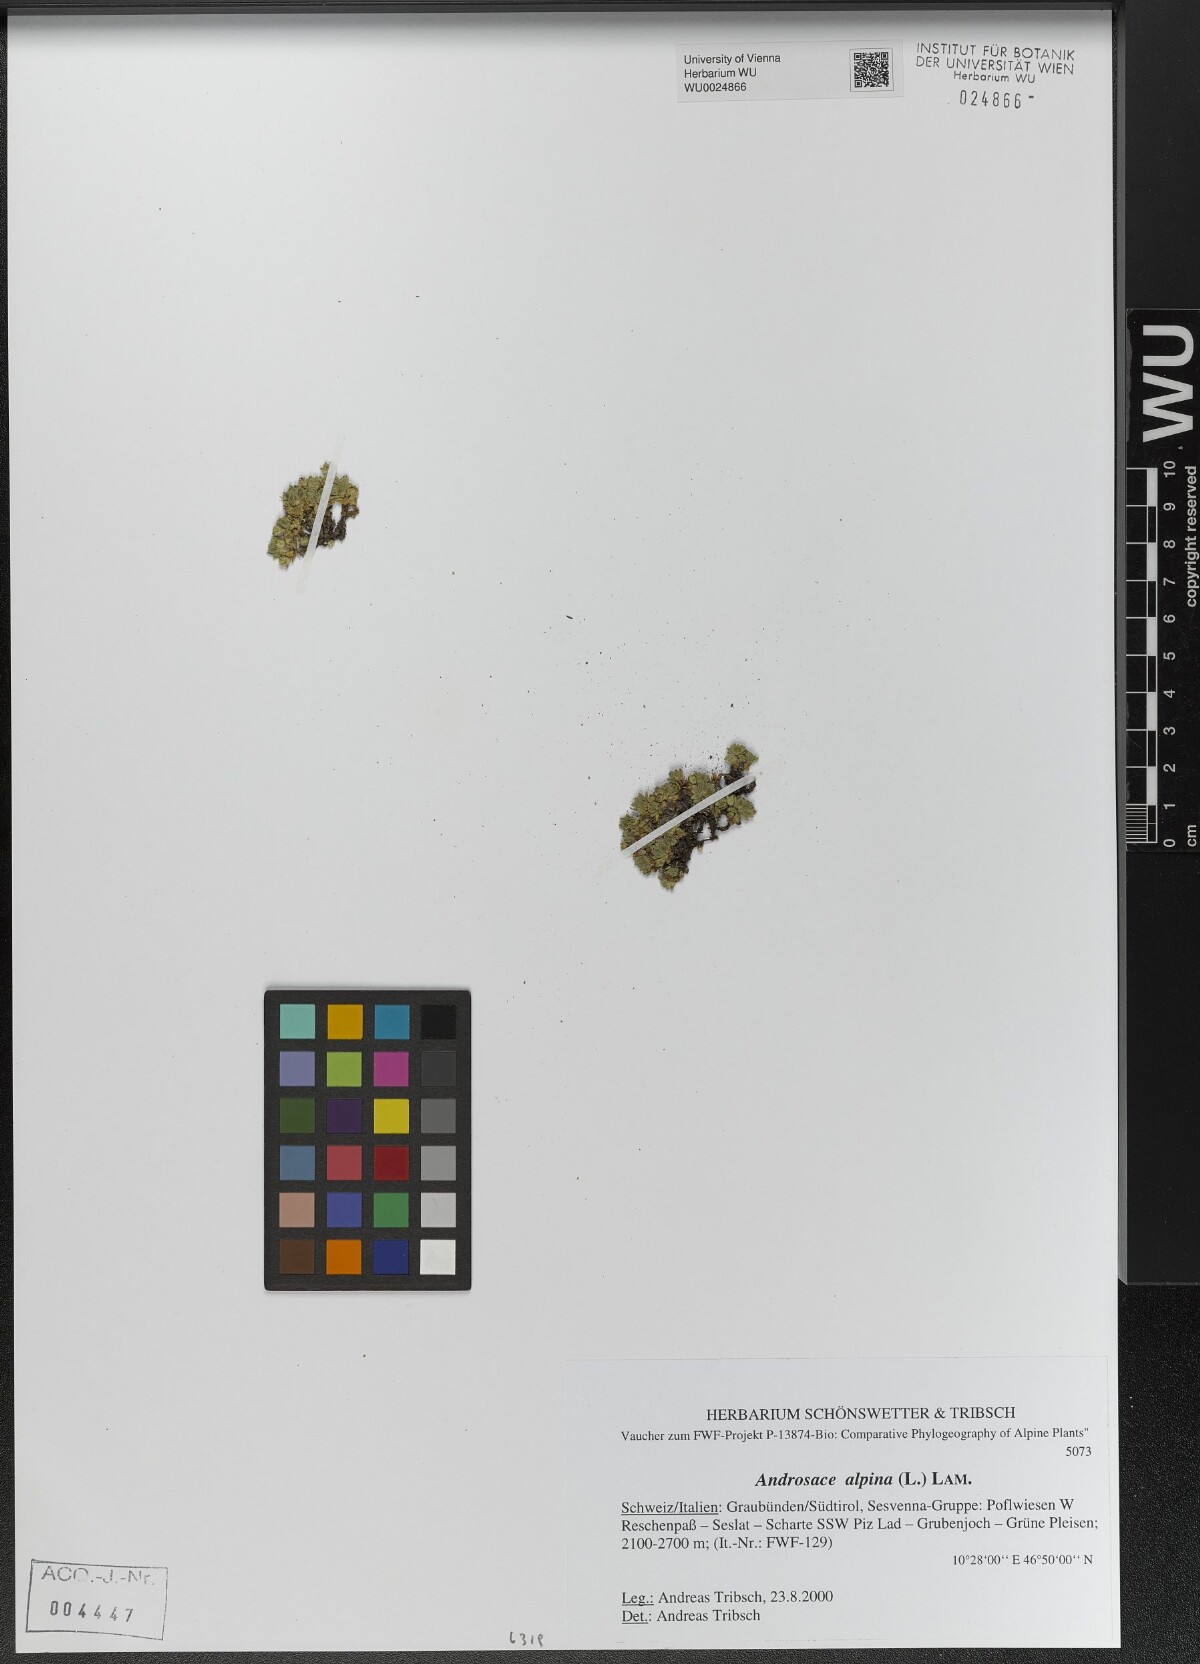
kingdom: Plantae
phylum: Tracheophyta
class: Magnoliopsida
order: Ericales
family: Primulaceae
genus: Androsace
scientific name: Androsace alpina
